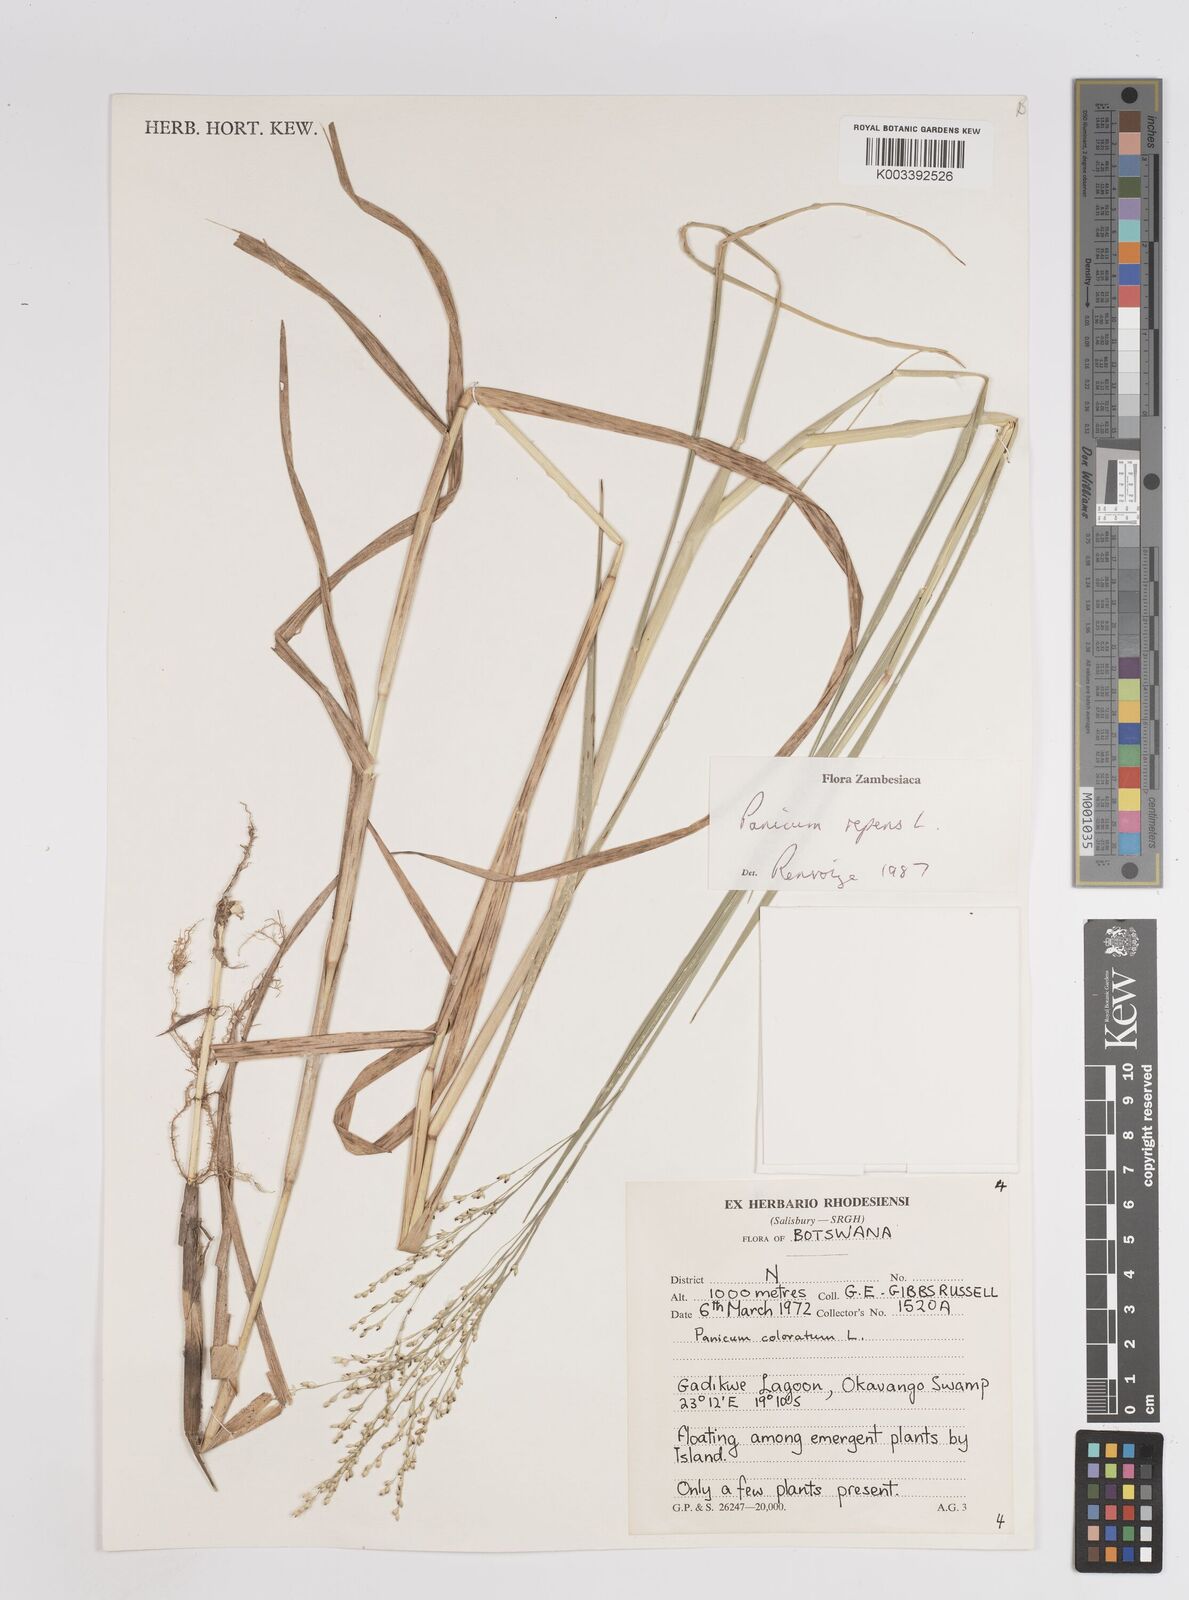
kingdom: Plantae
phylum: Tracheophyta
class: Liliopsida
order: Poales
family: Poaceae
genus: Panicum
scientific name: Panicum repens
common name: Torpedo grass
